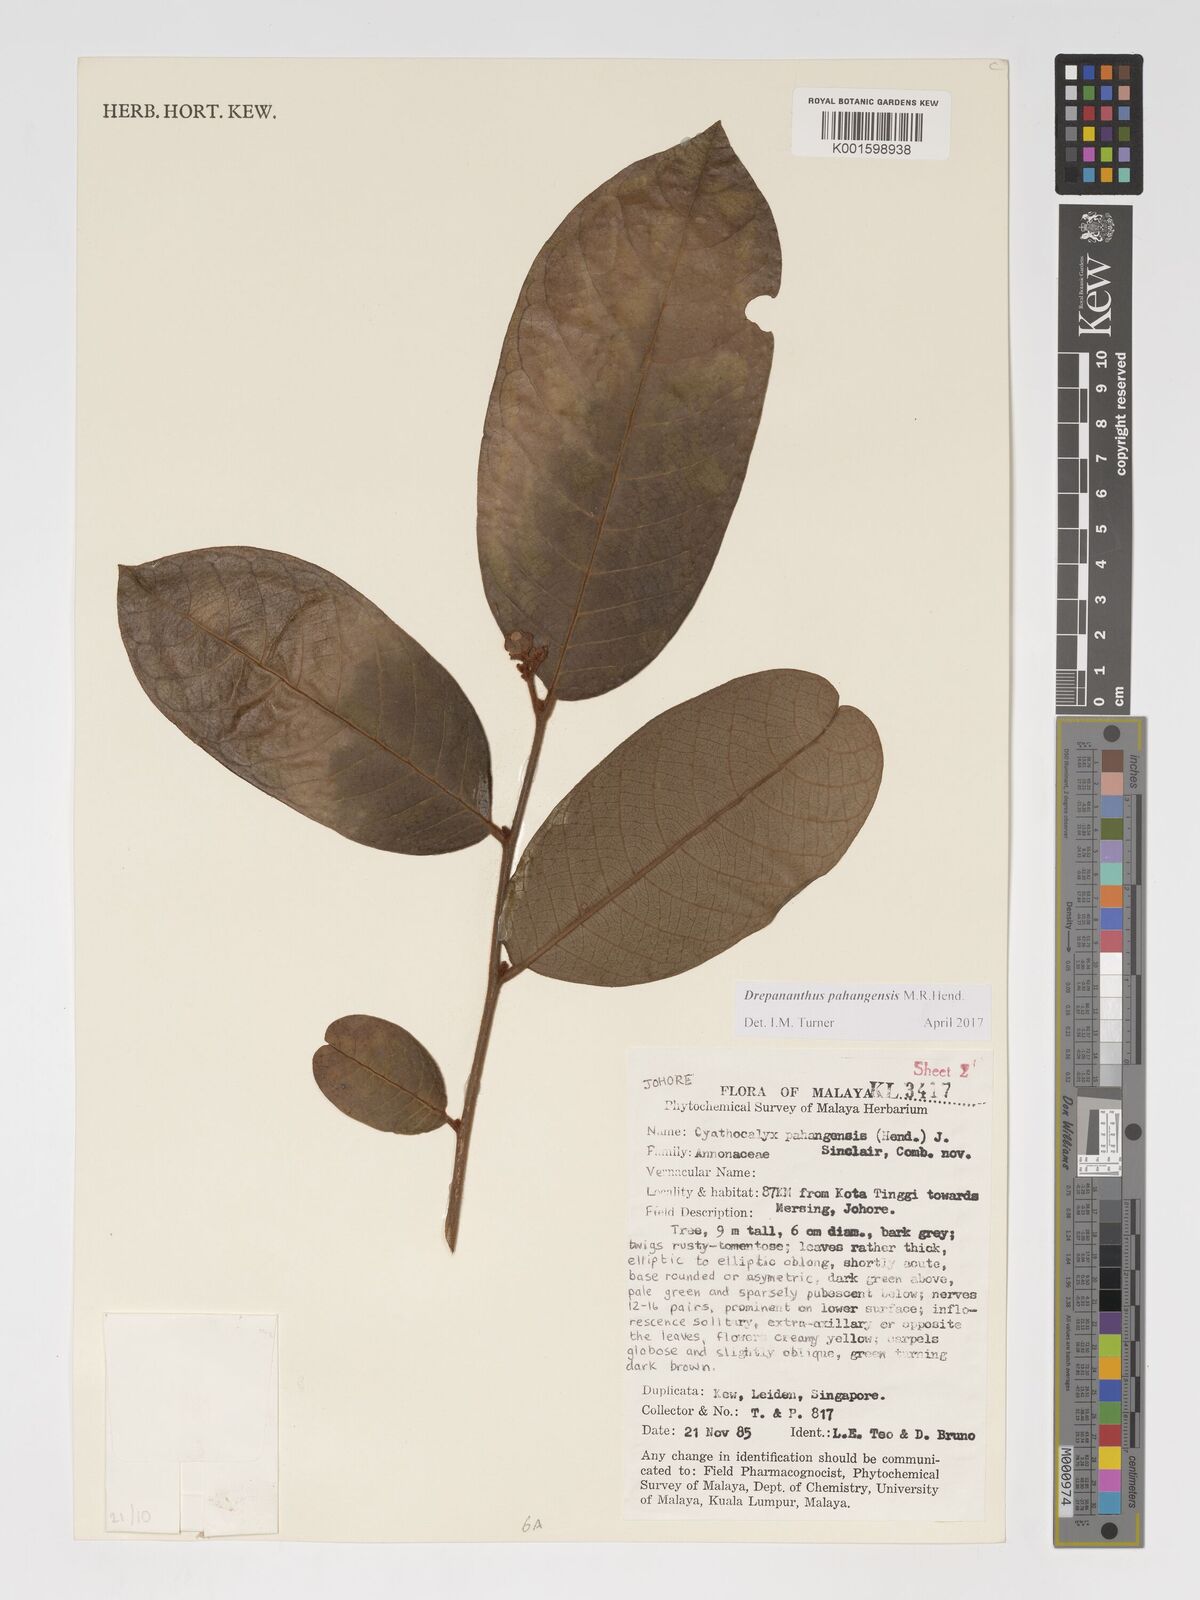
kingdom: Plantae
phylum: Tracheophyta
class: Magnoliopsida
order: Magnoliales
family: Annonaceae
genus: Drepananthus
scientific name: Drepananthus pahangensis
